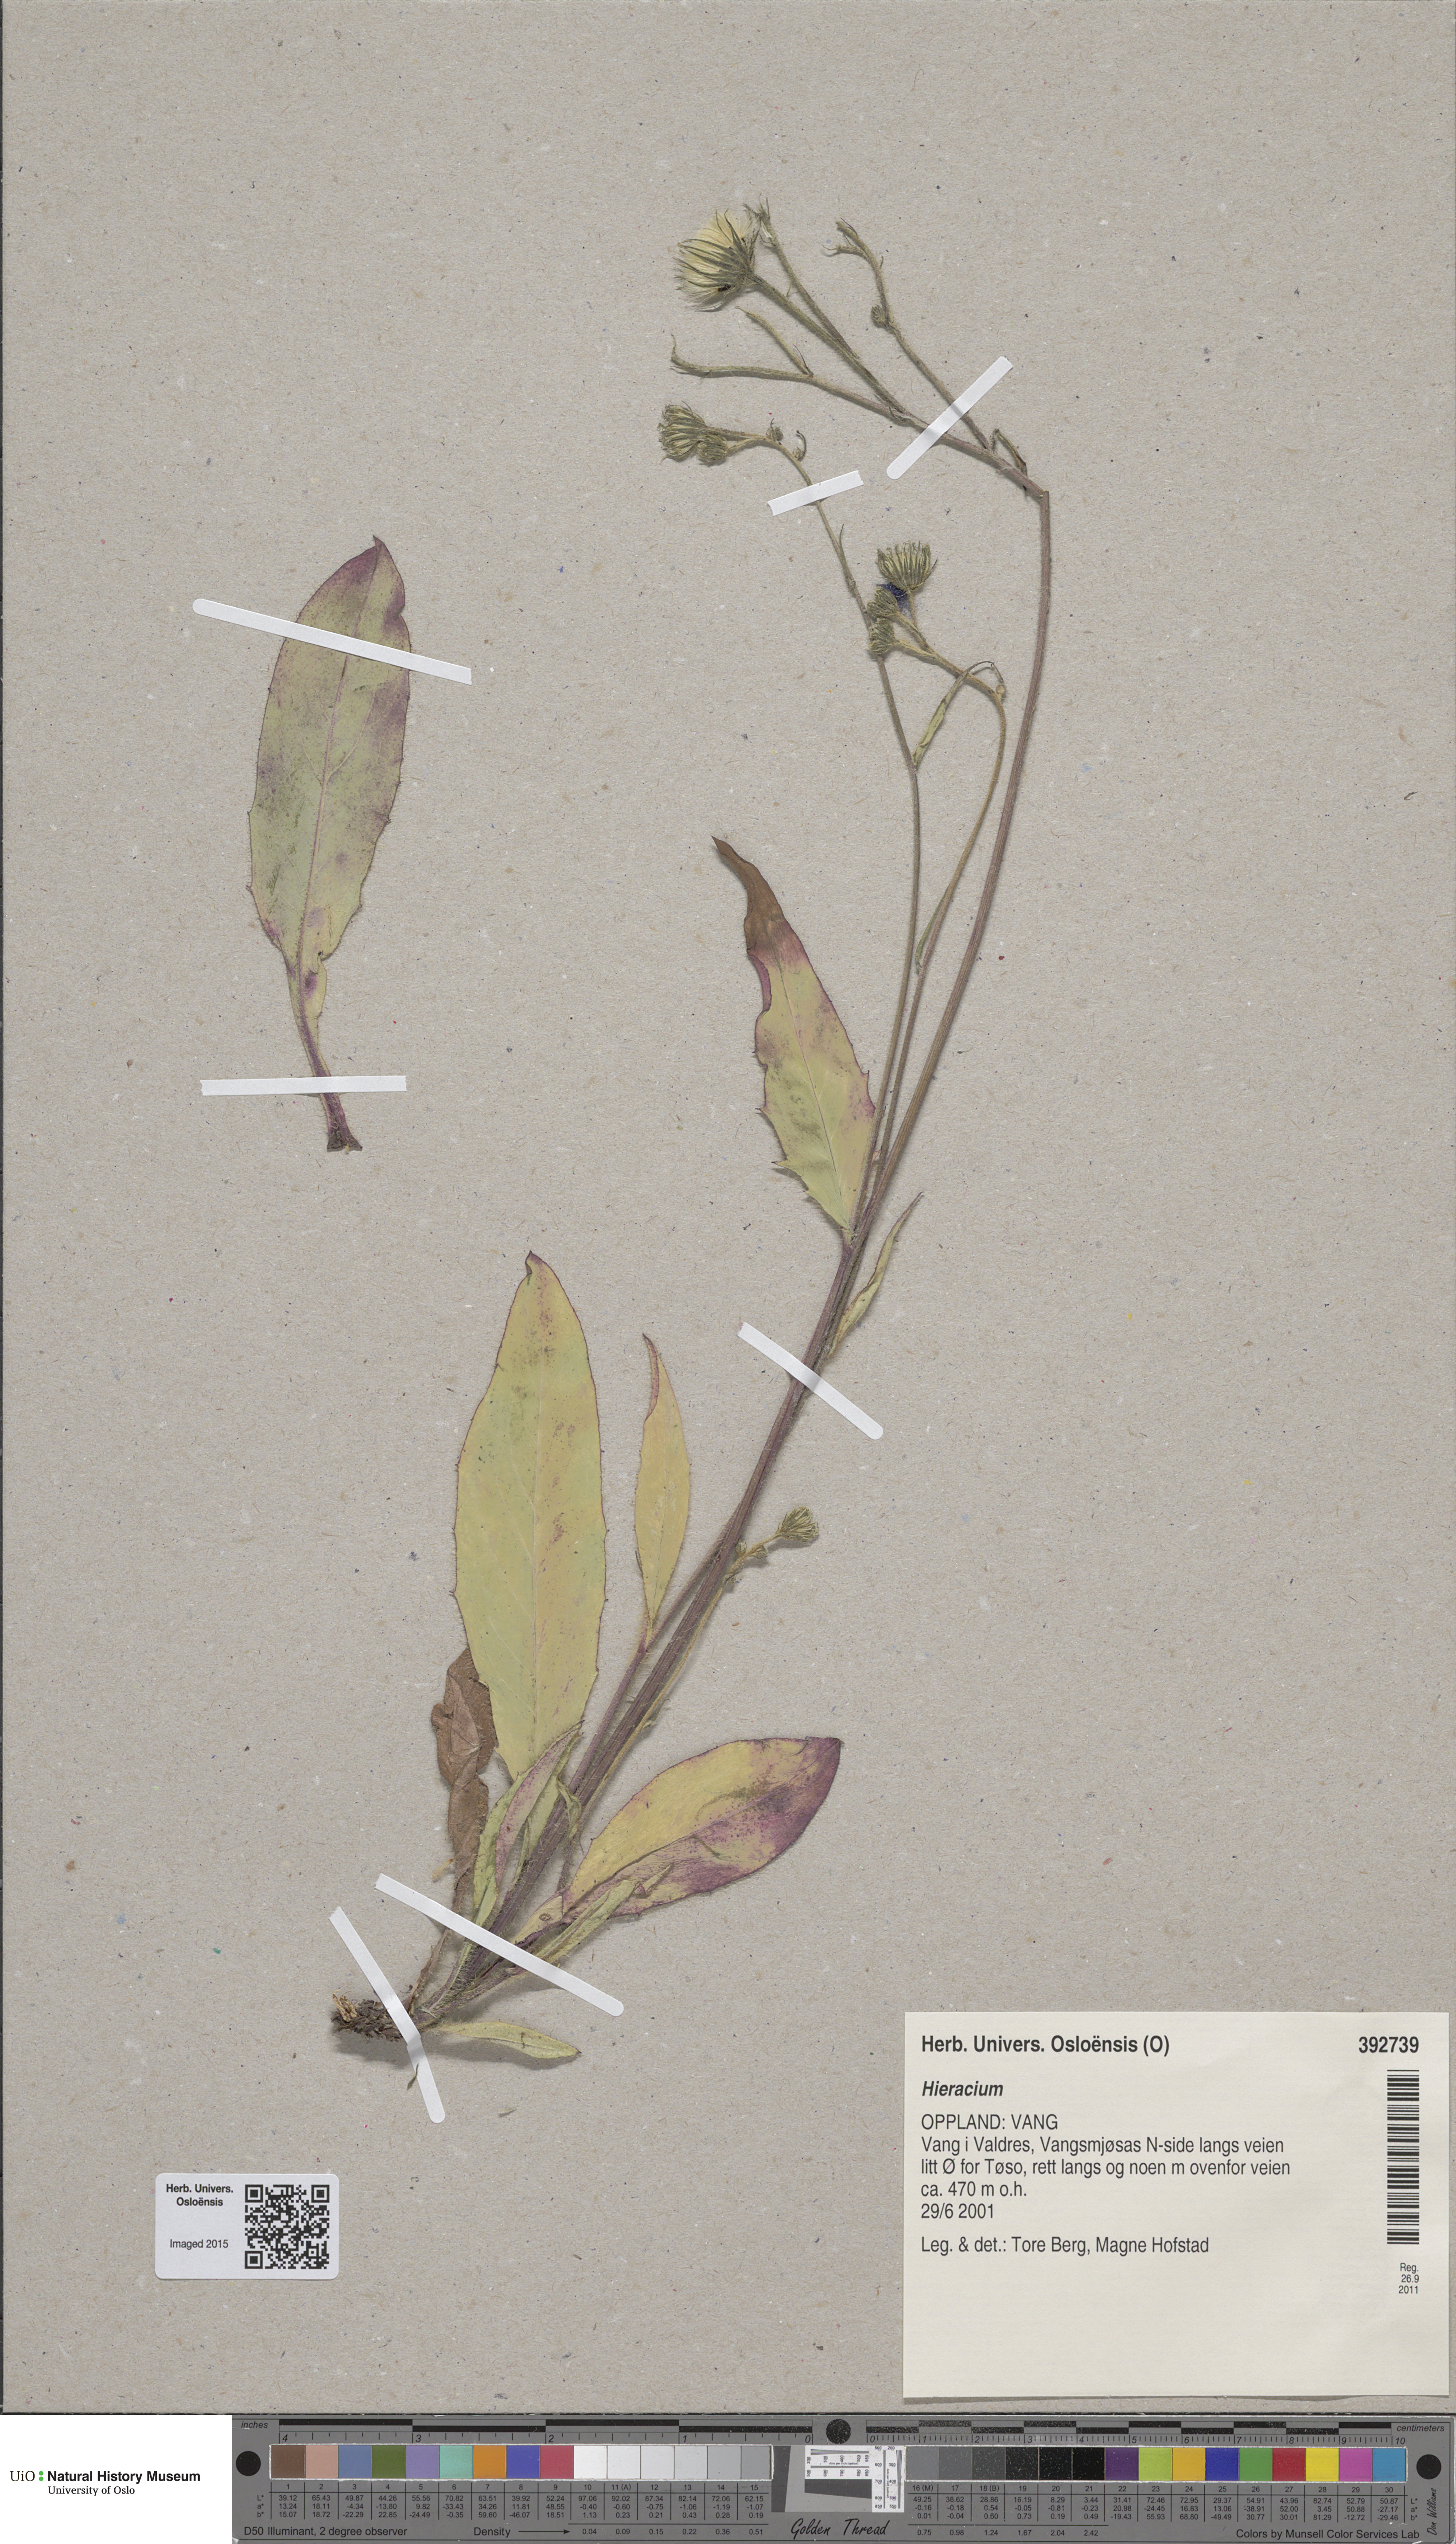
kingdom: Plantae
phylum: Tracheophyta
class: Magnoliopsida
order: Asterales
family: Asteraceae
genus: Hieracium
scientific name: Hieracium
